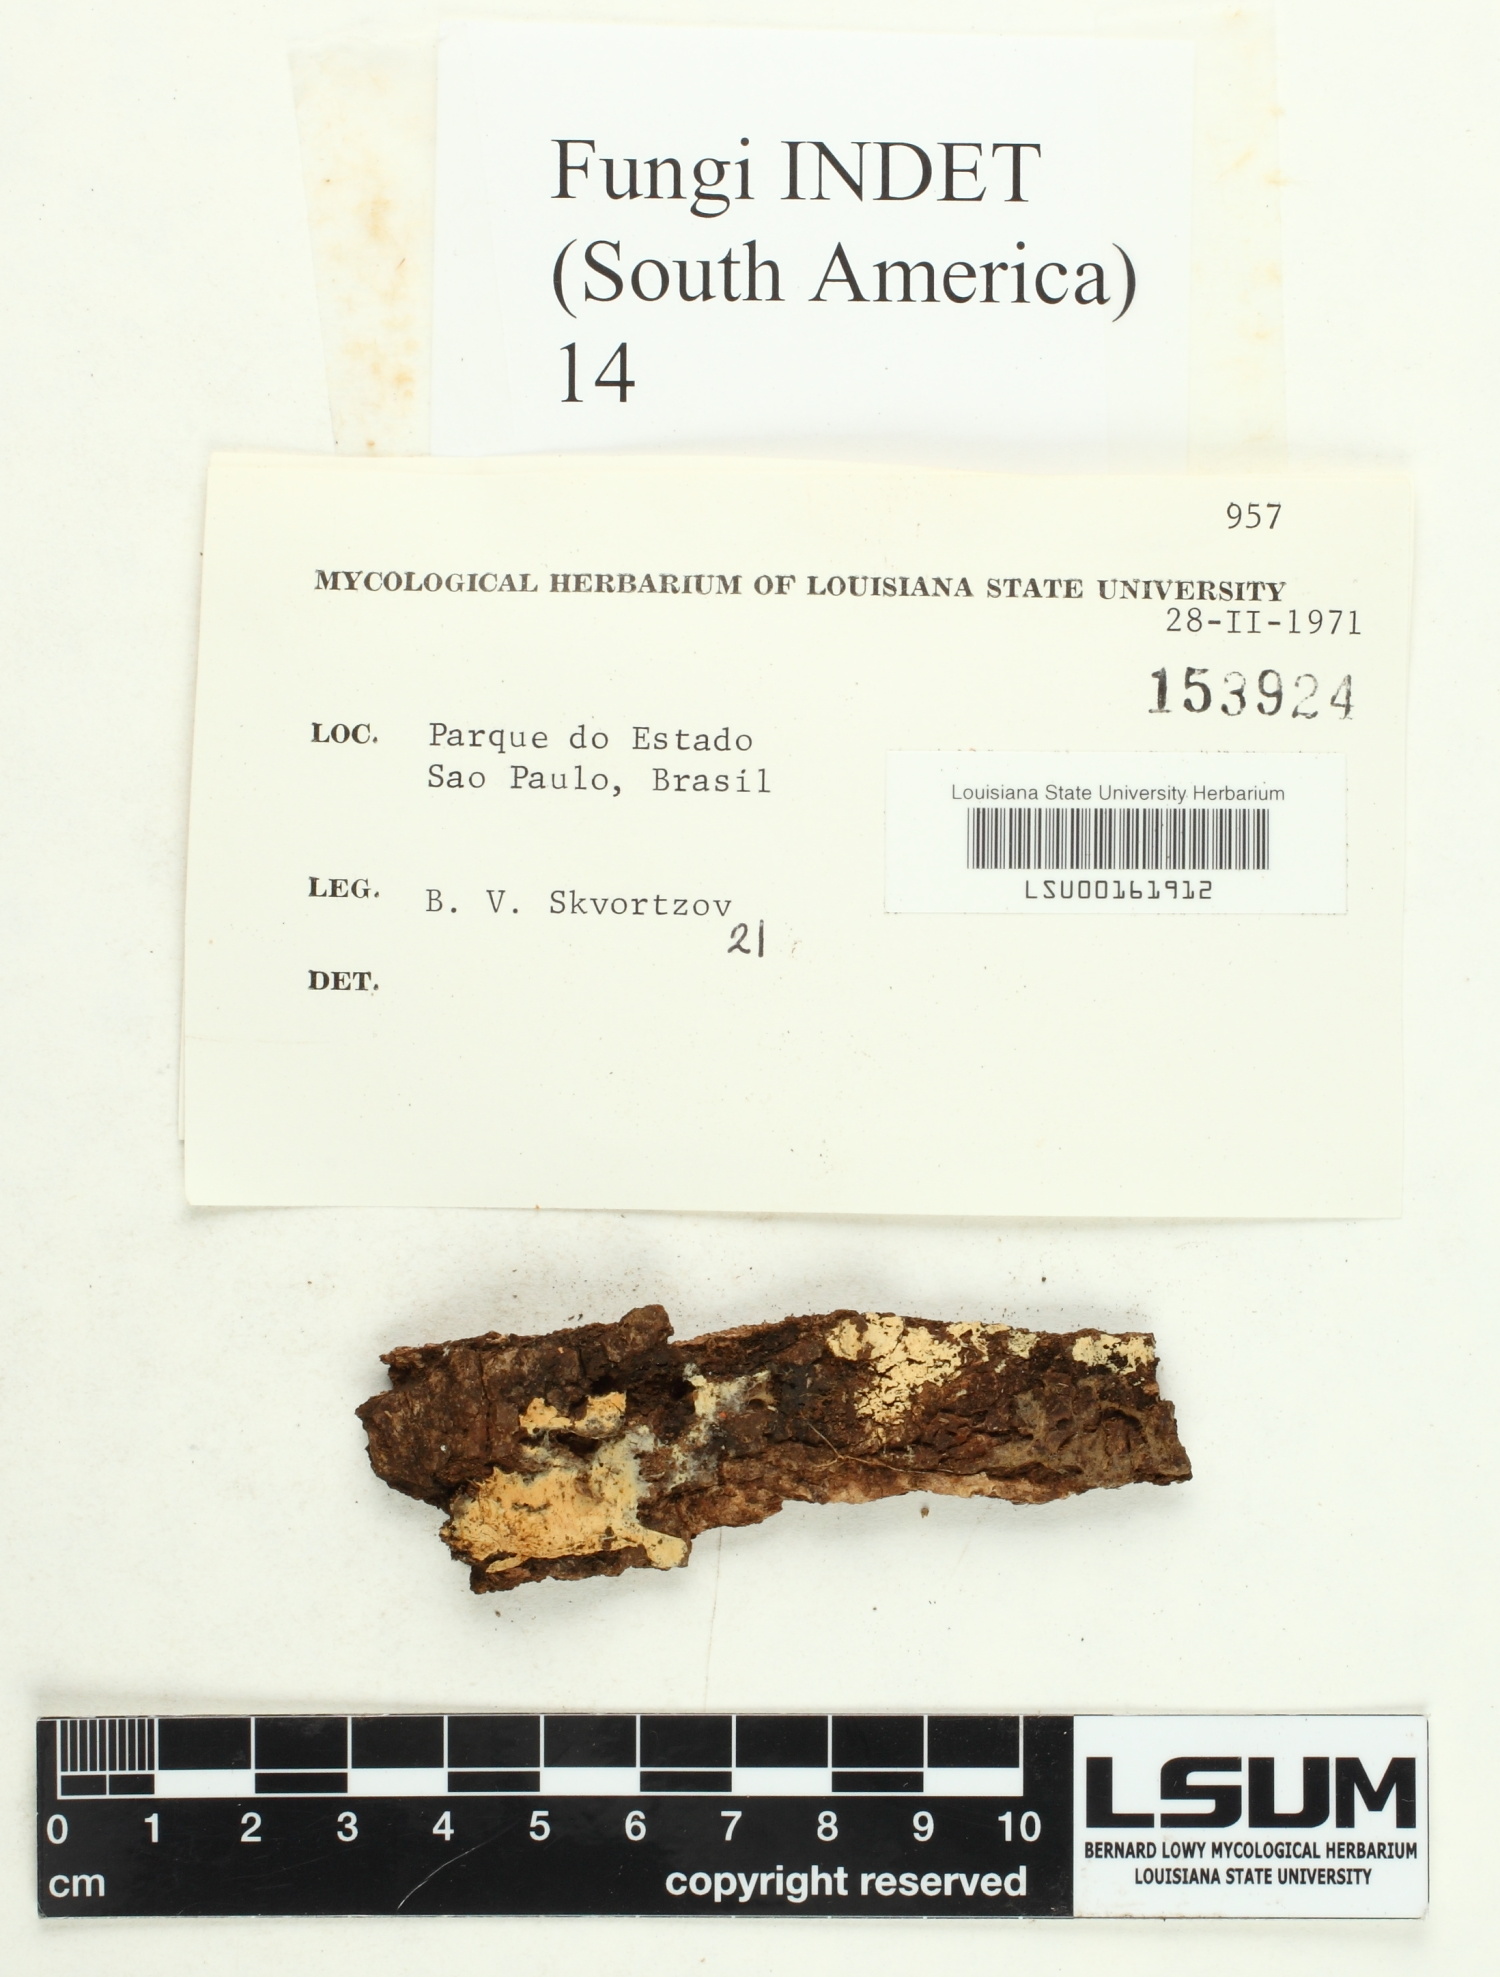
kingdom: Fungi
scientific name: Fungi
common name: Fungi
